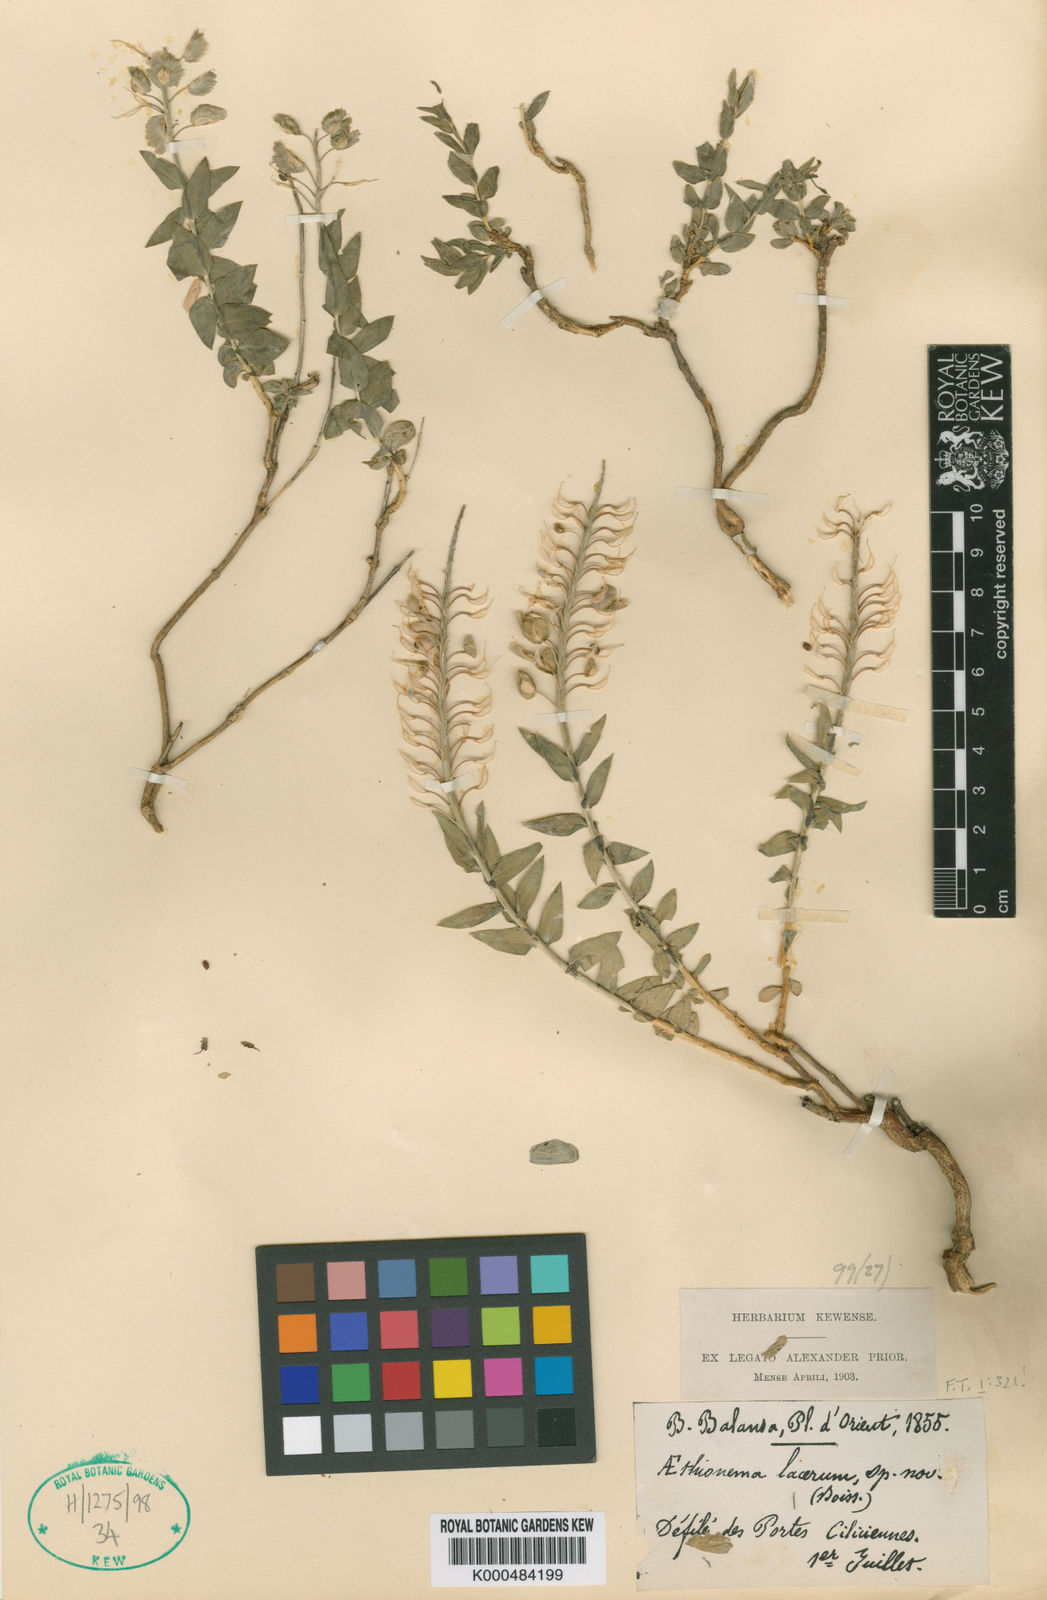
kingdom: Plantae
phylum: Tracheophyta
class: Magnoliopsida
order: Brassicales
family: Brassicaceae
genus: Aethionema
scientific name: Aethionema stylosum
